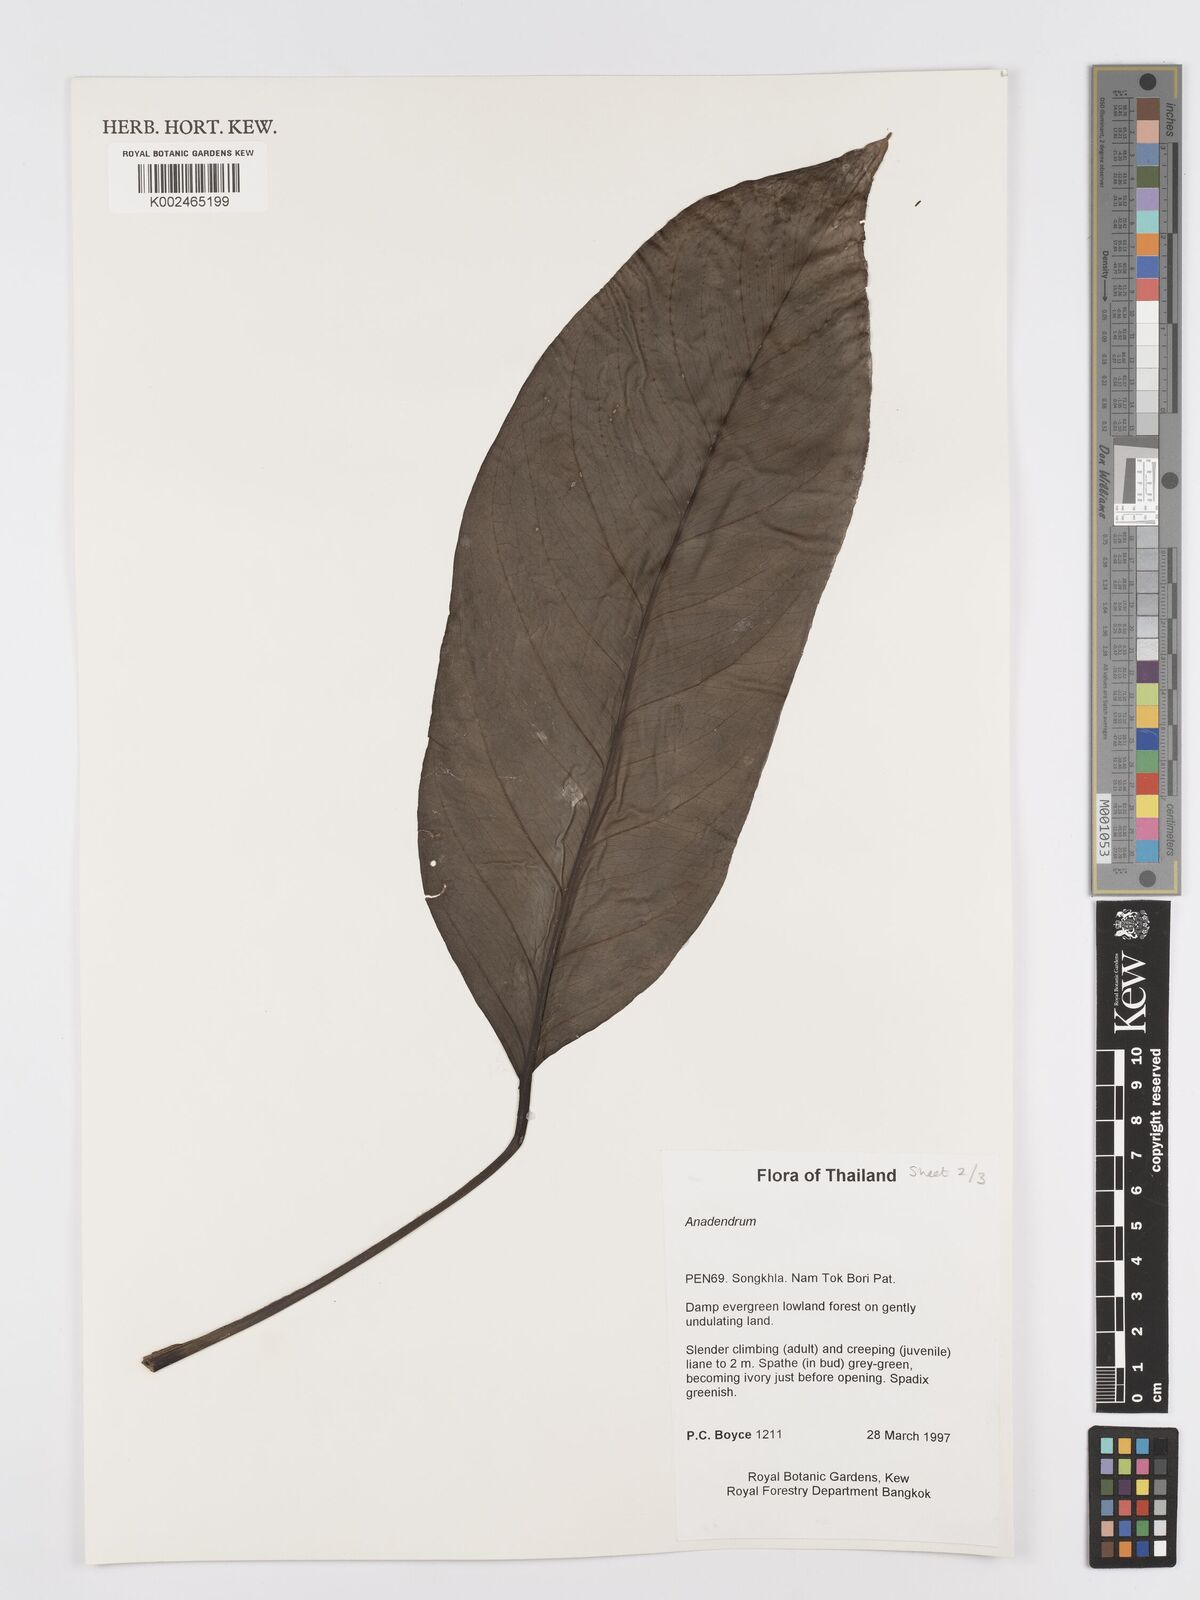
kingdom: Plantae
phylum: Tracheophyta
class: Liliopsida
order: Alismatales
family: Araceae
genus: Anadendrum
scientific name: Anadendrum
